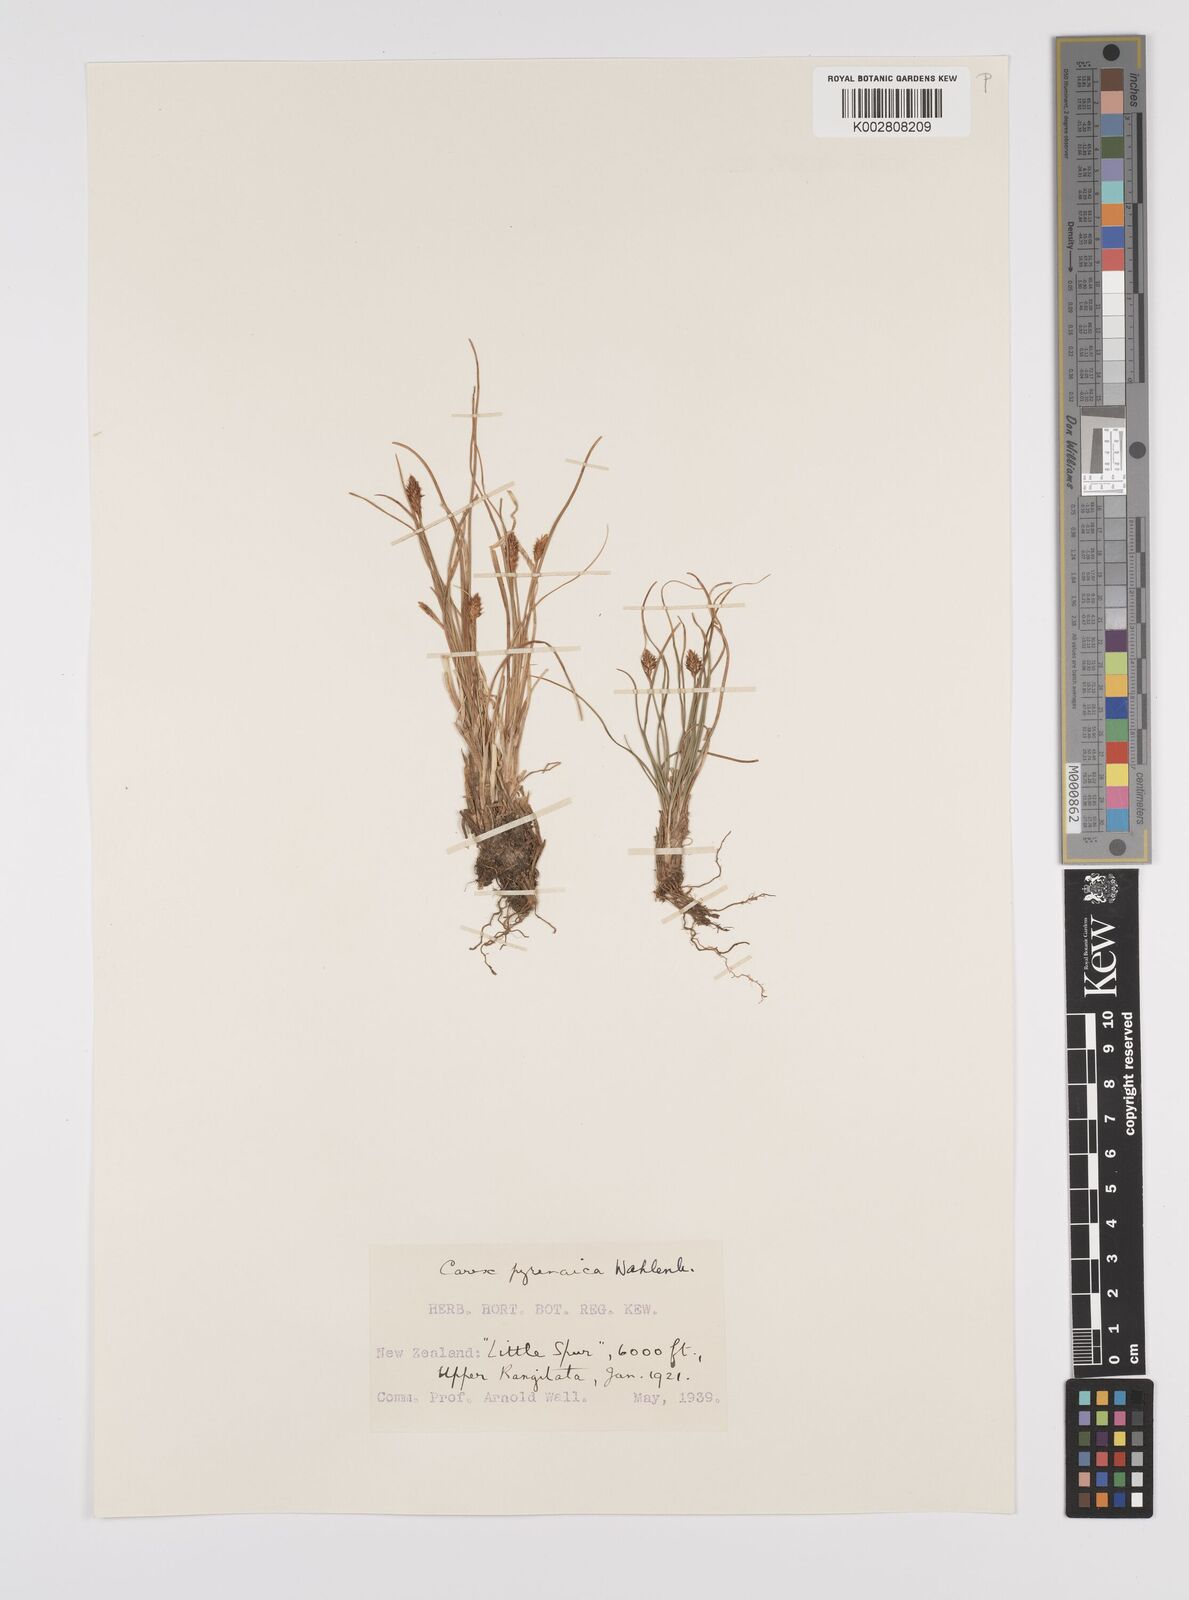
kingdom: Plantae
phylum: Tracheophyta
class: Liliopsida
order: Poales
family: Cyperaceae
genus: Carex
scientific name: Carex pyrenaica
